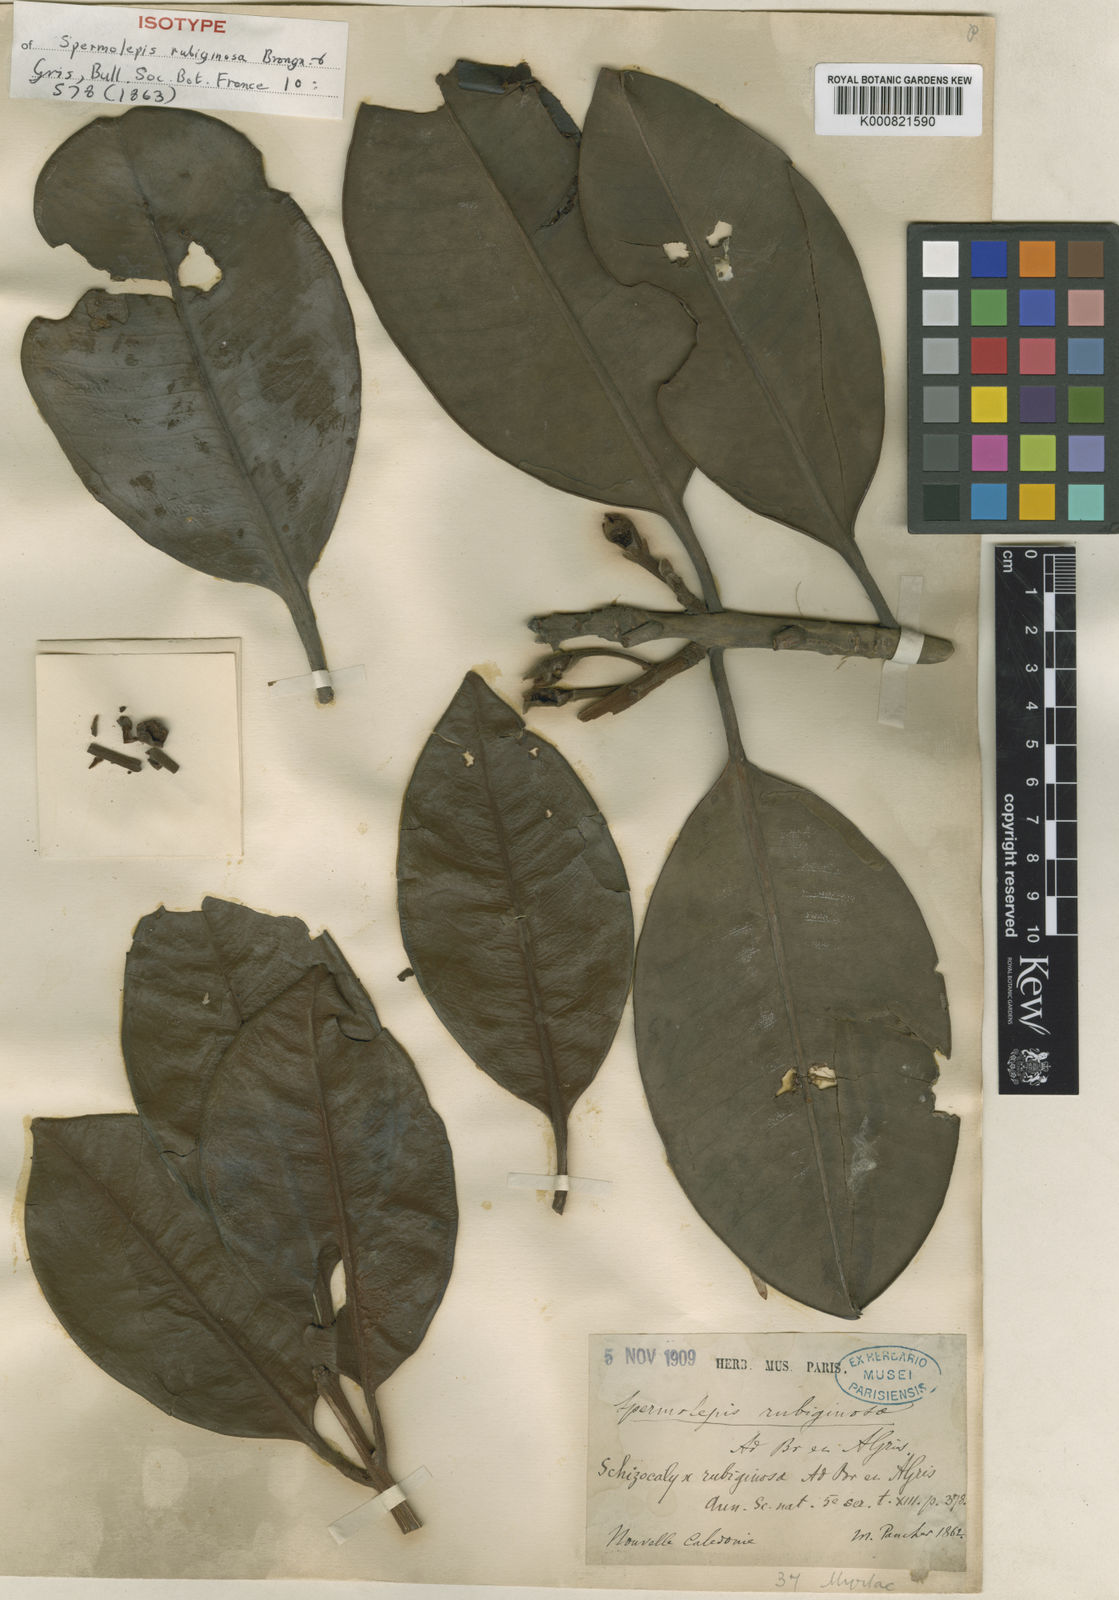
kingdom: Plantae
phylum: Tracheophyta
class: Magnoliopsida
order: Myrtales
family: Myrtaceae
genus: Eugenia
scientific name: Eugenia veillonii
